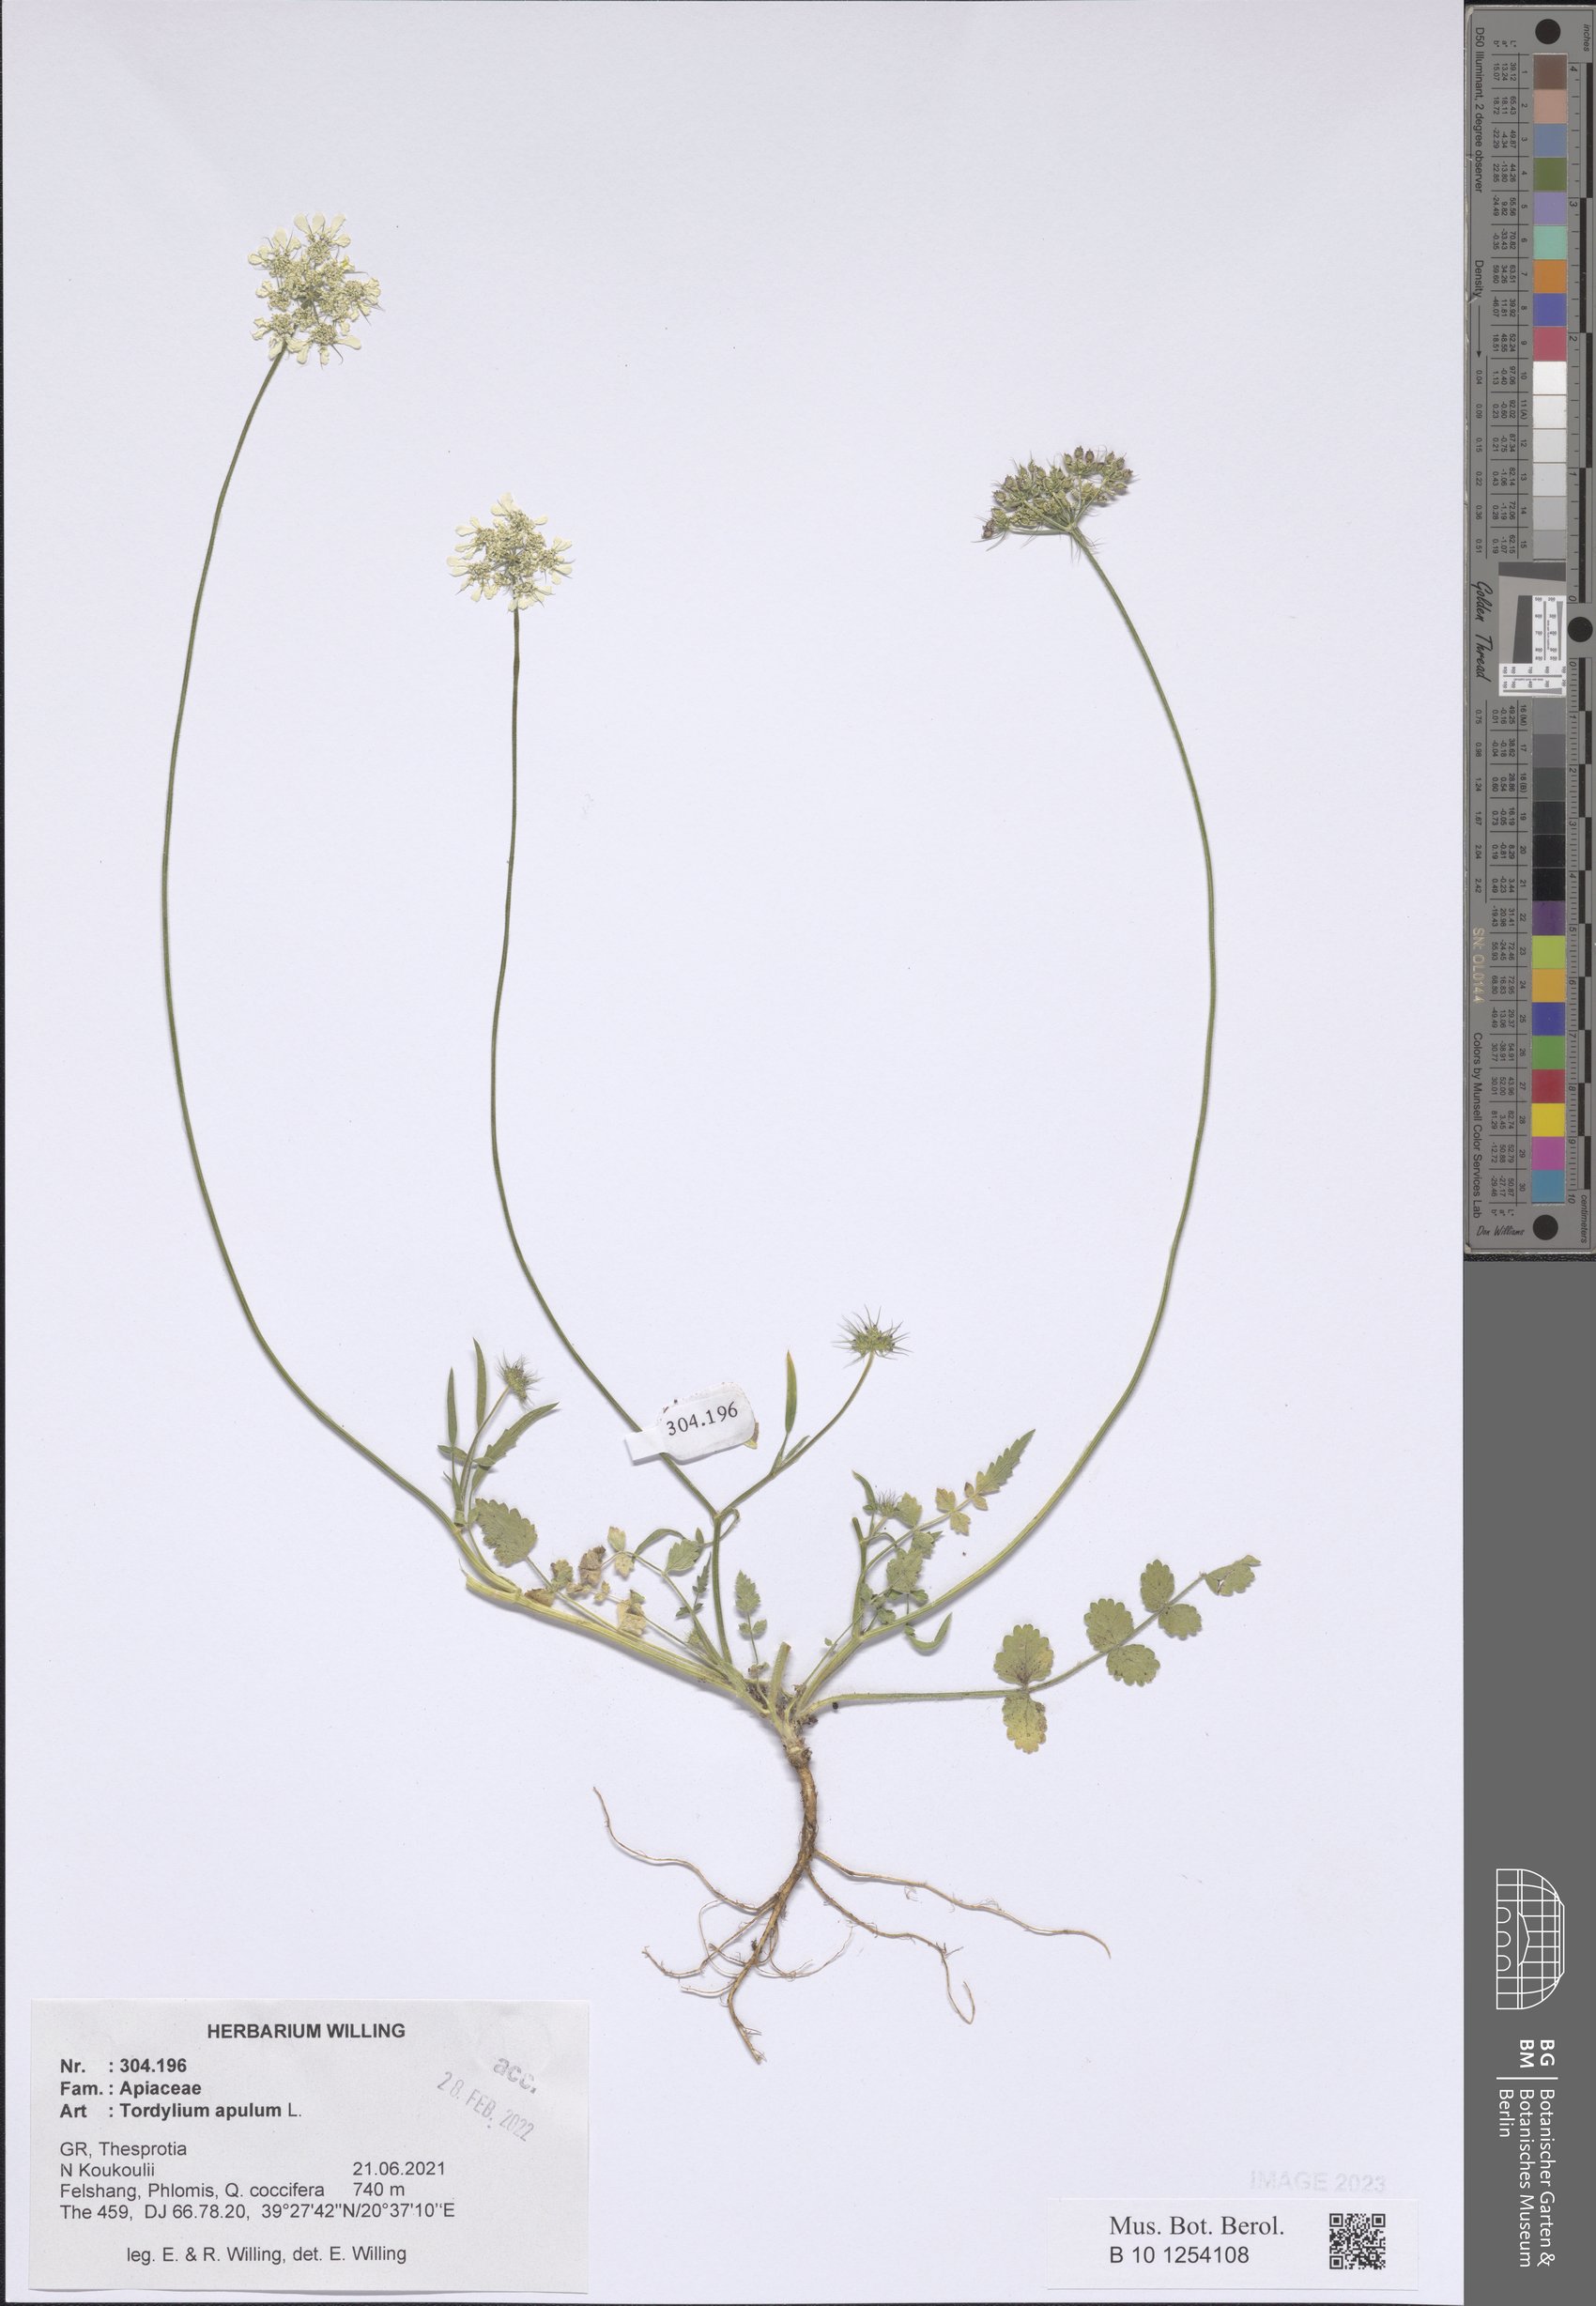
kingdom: Plantae
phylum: Tracheophyta
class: Magnoliopsida
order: Apiales
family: Apiaceae
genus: Tordylium
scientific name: Tordylium apulum
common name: Mediterranean hartwort
